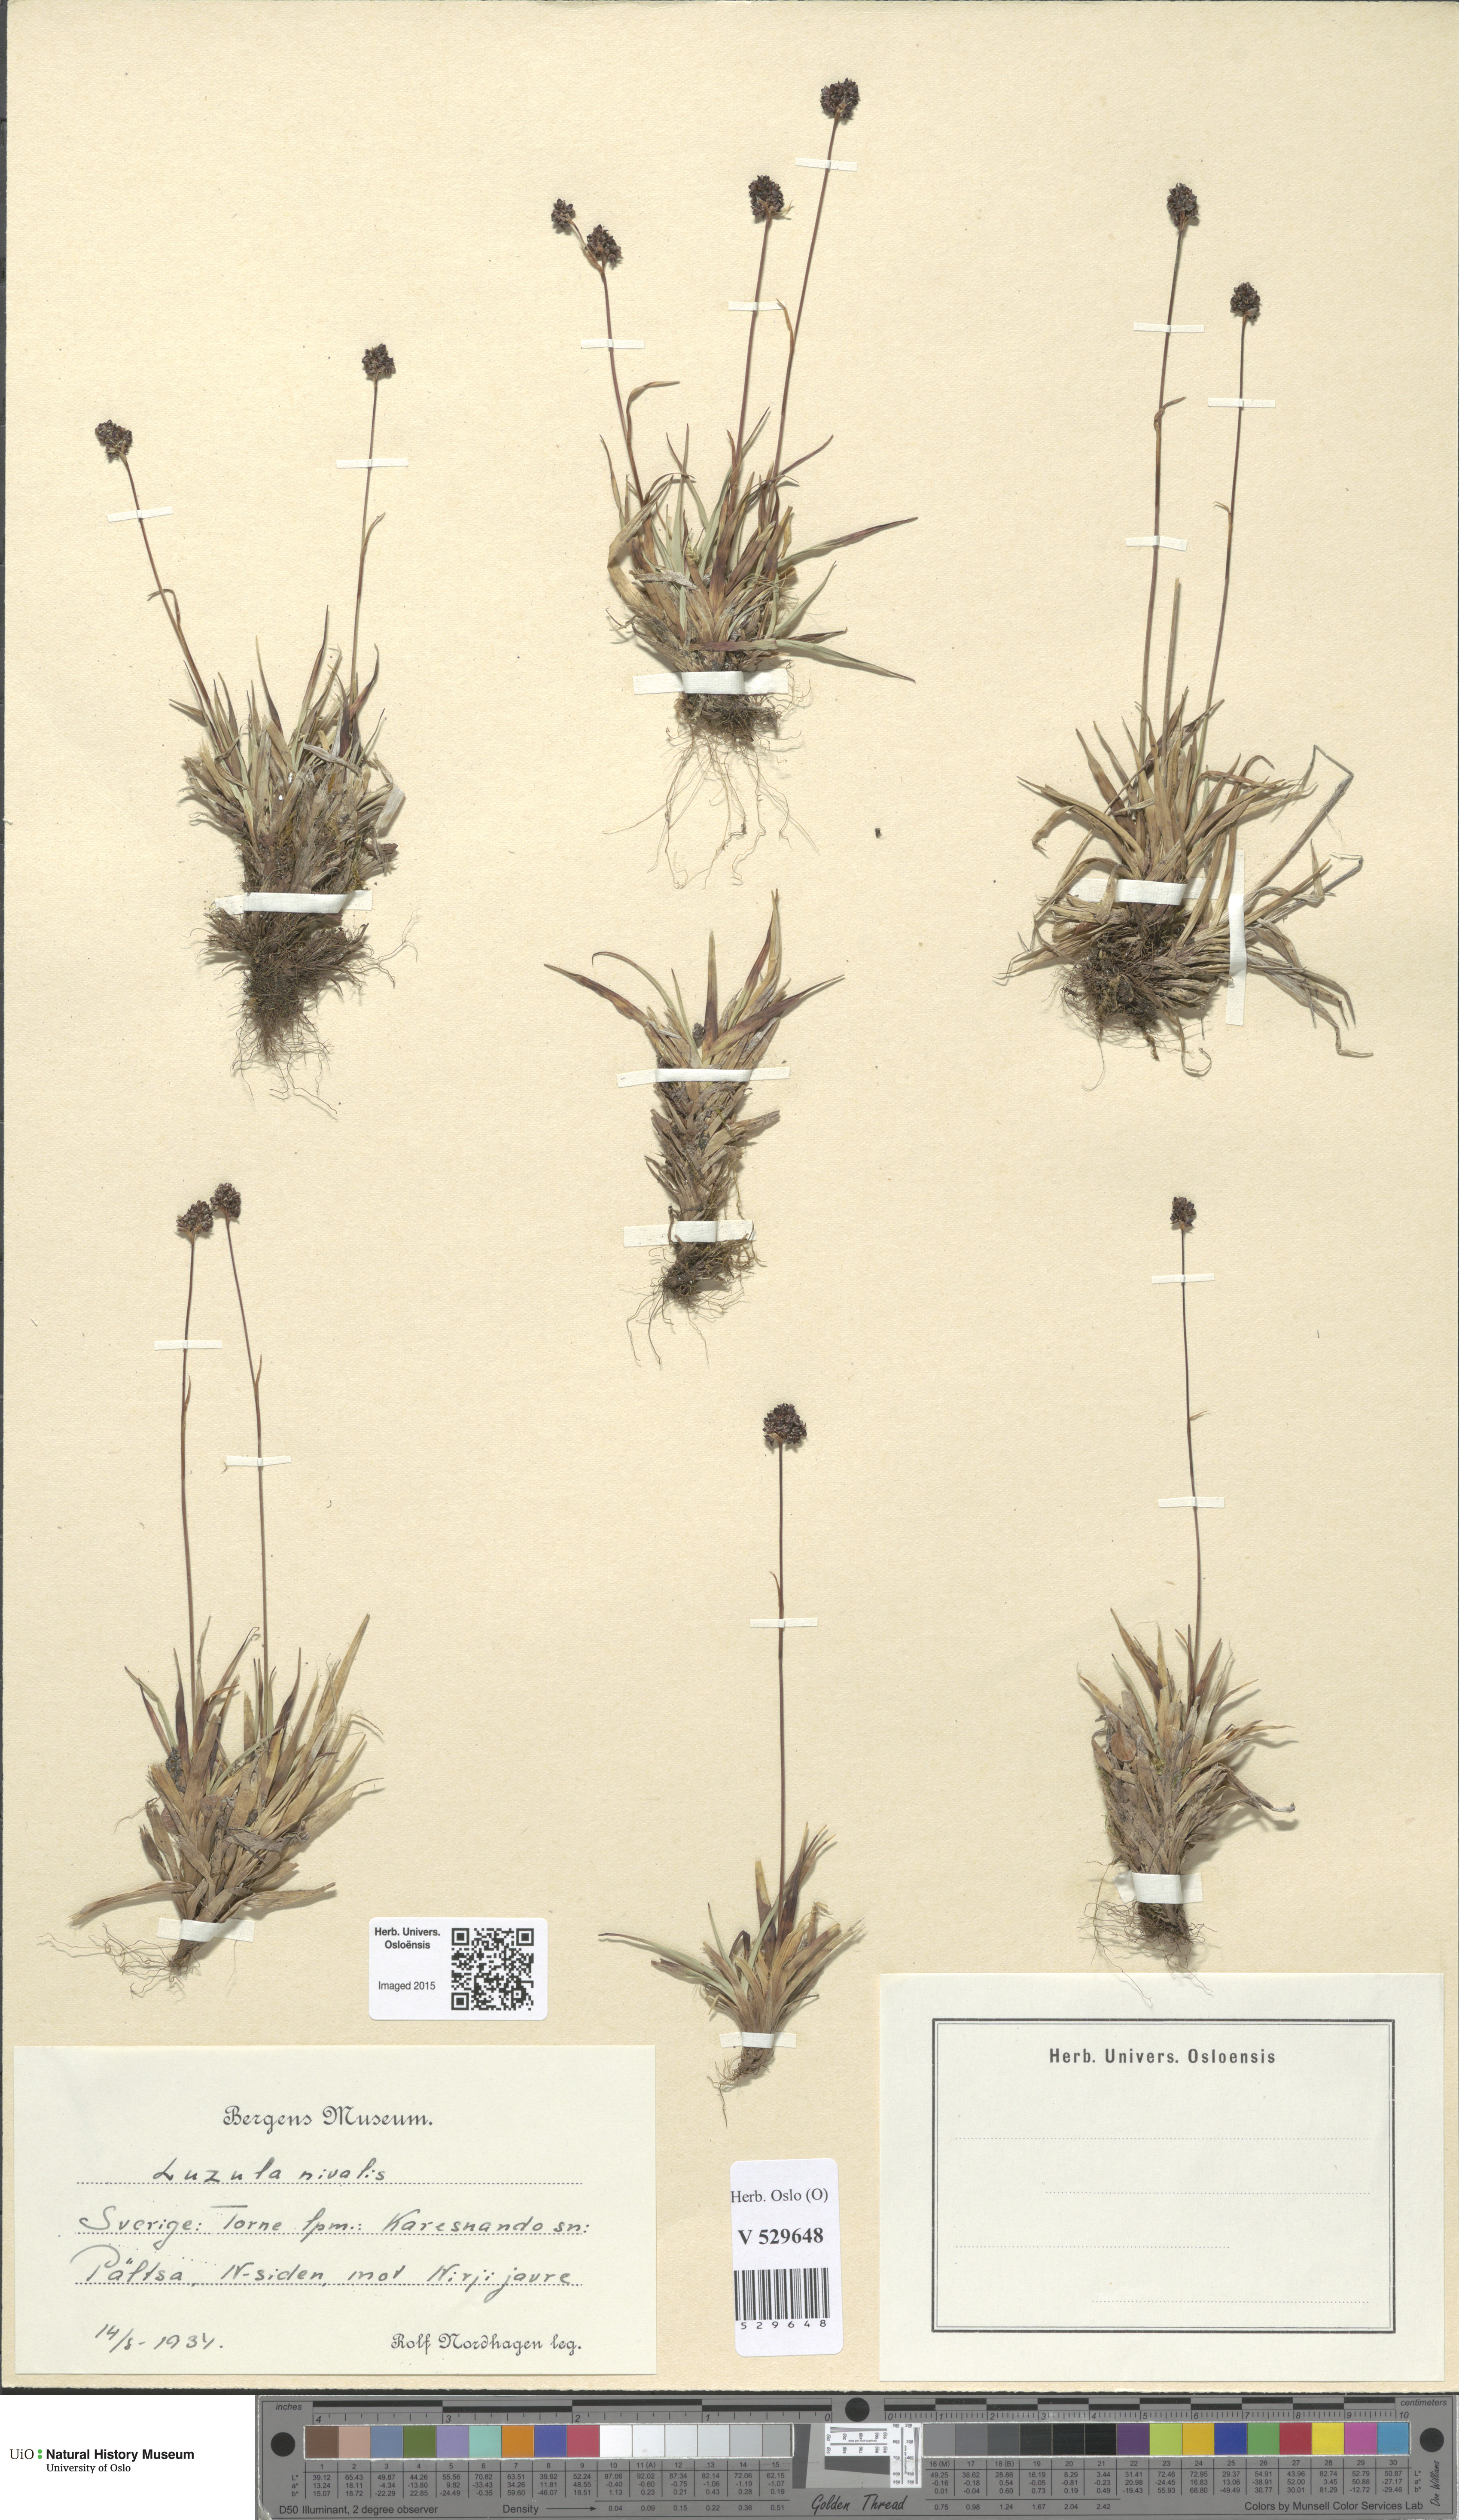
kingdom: Plantae
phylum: Tracheophyta
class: Liliopsida
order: Poales
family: Juncaceae
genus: Luzula
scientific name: Luzula nivalis
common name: Arctic woodrush
